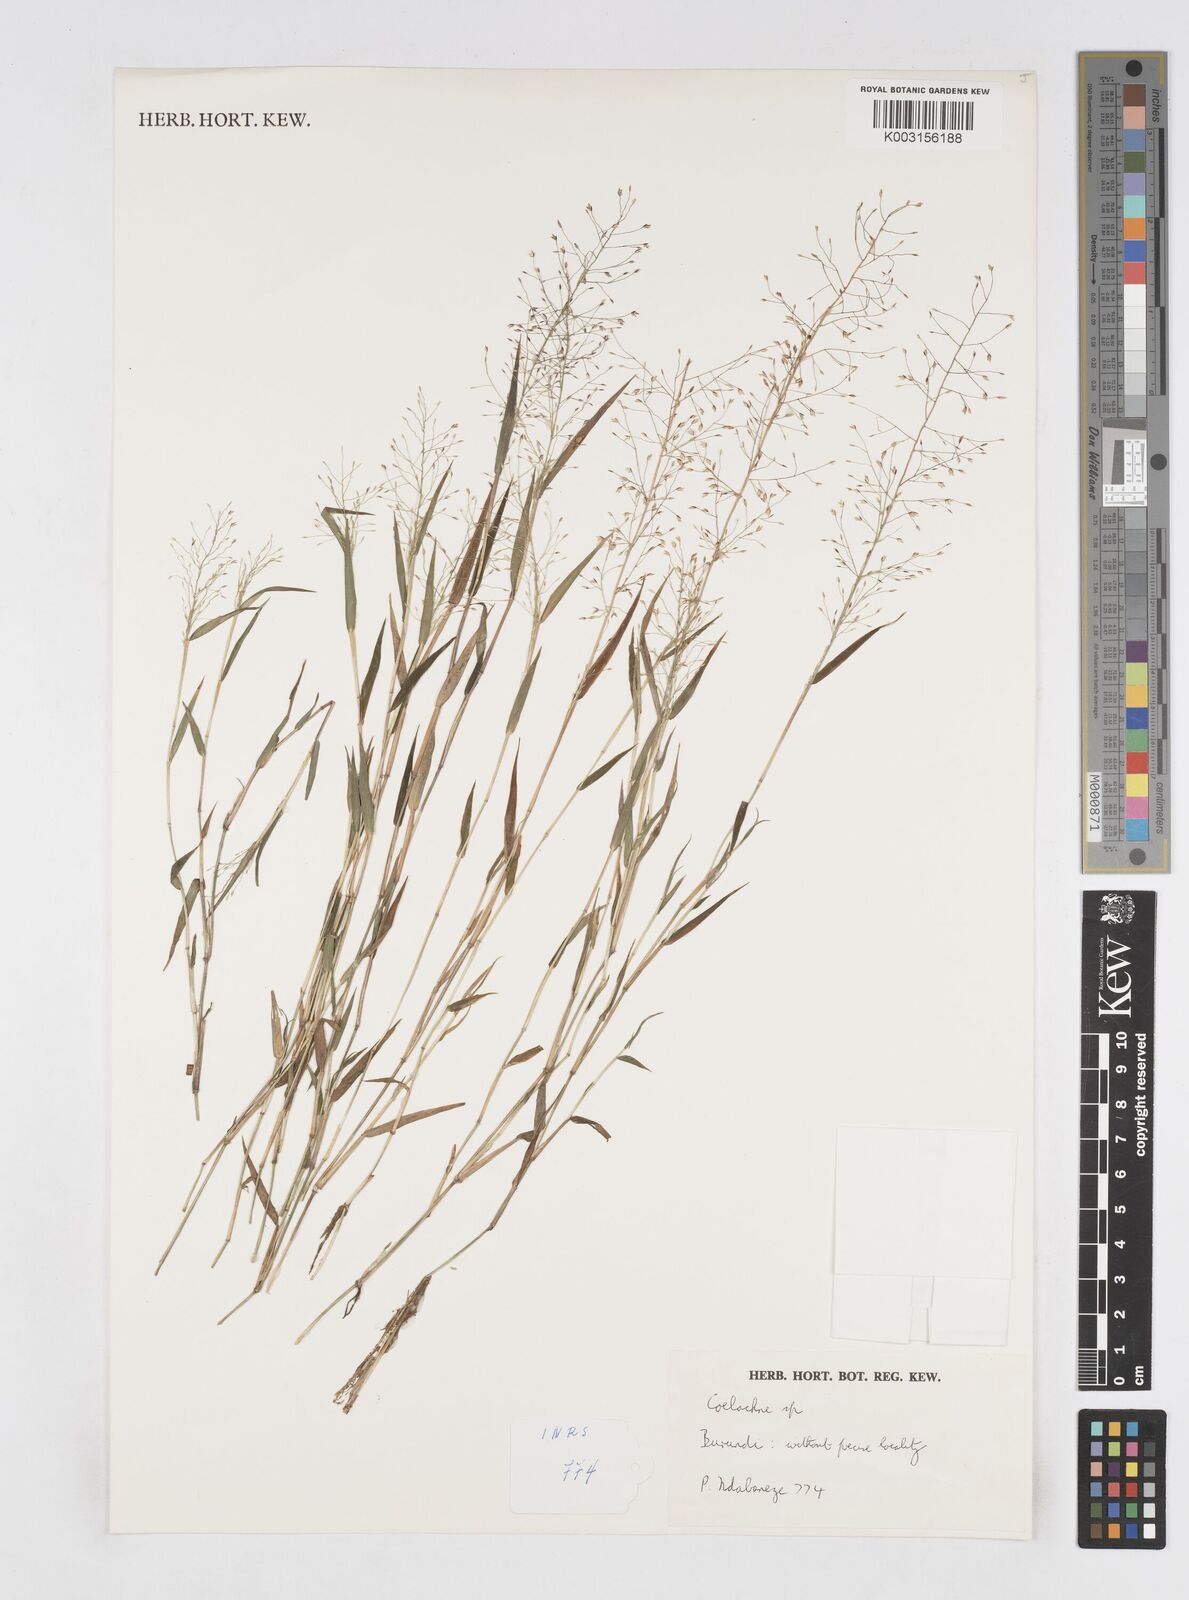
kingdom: Plantae
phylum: Tracheophyta
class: Liliopsida
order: Poales
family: Poaceae
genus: Coelachne
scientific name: Coelachne africana
